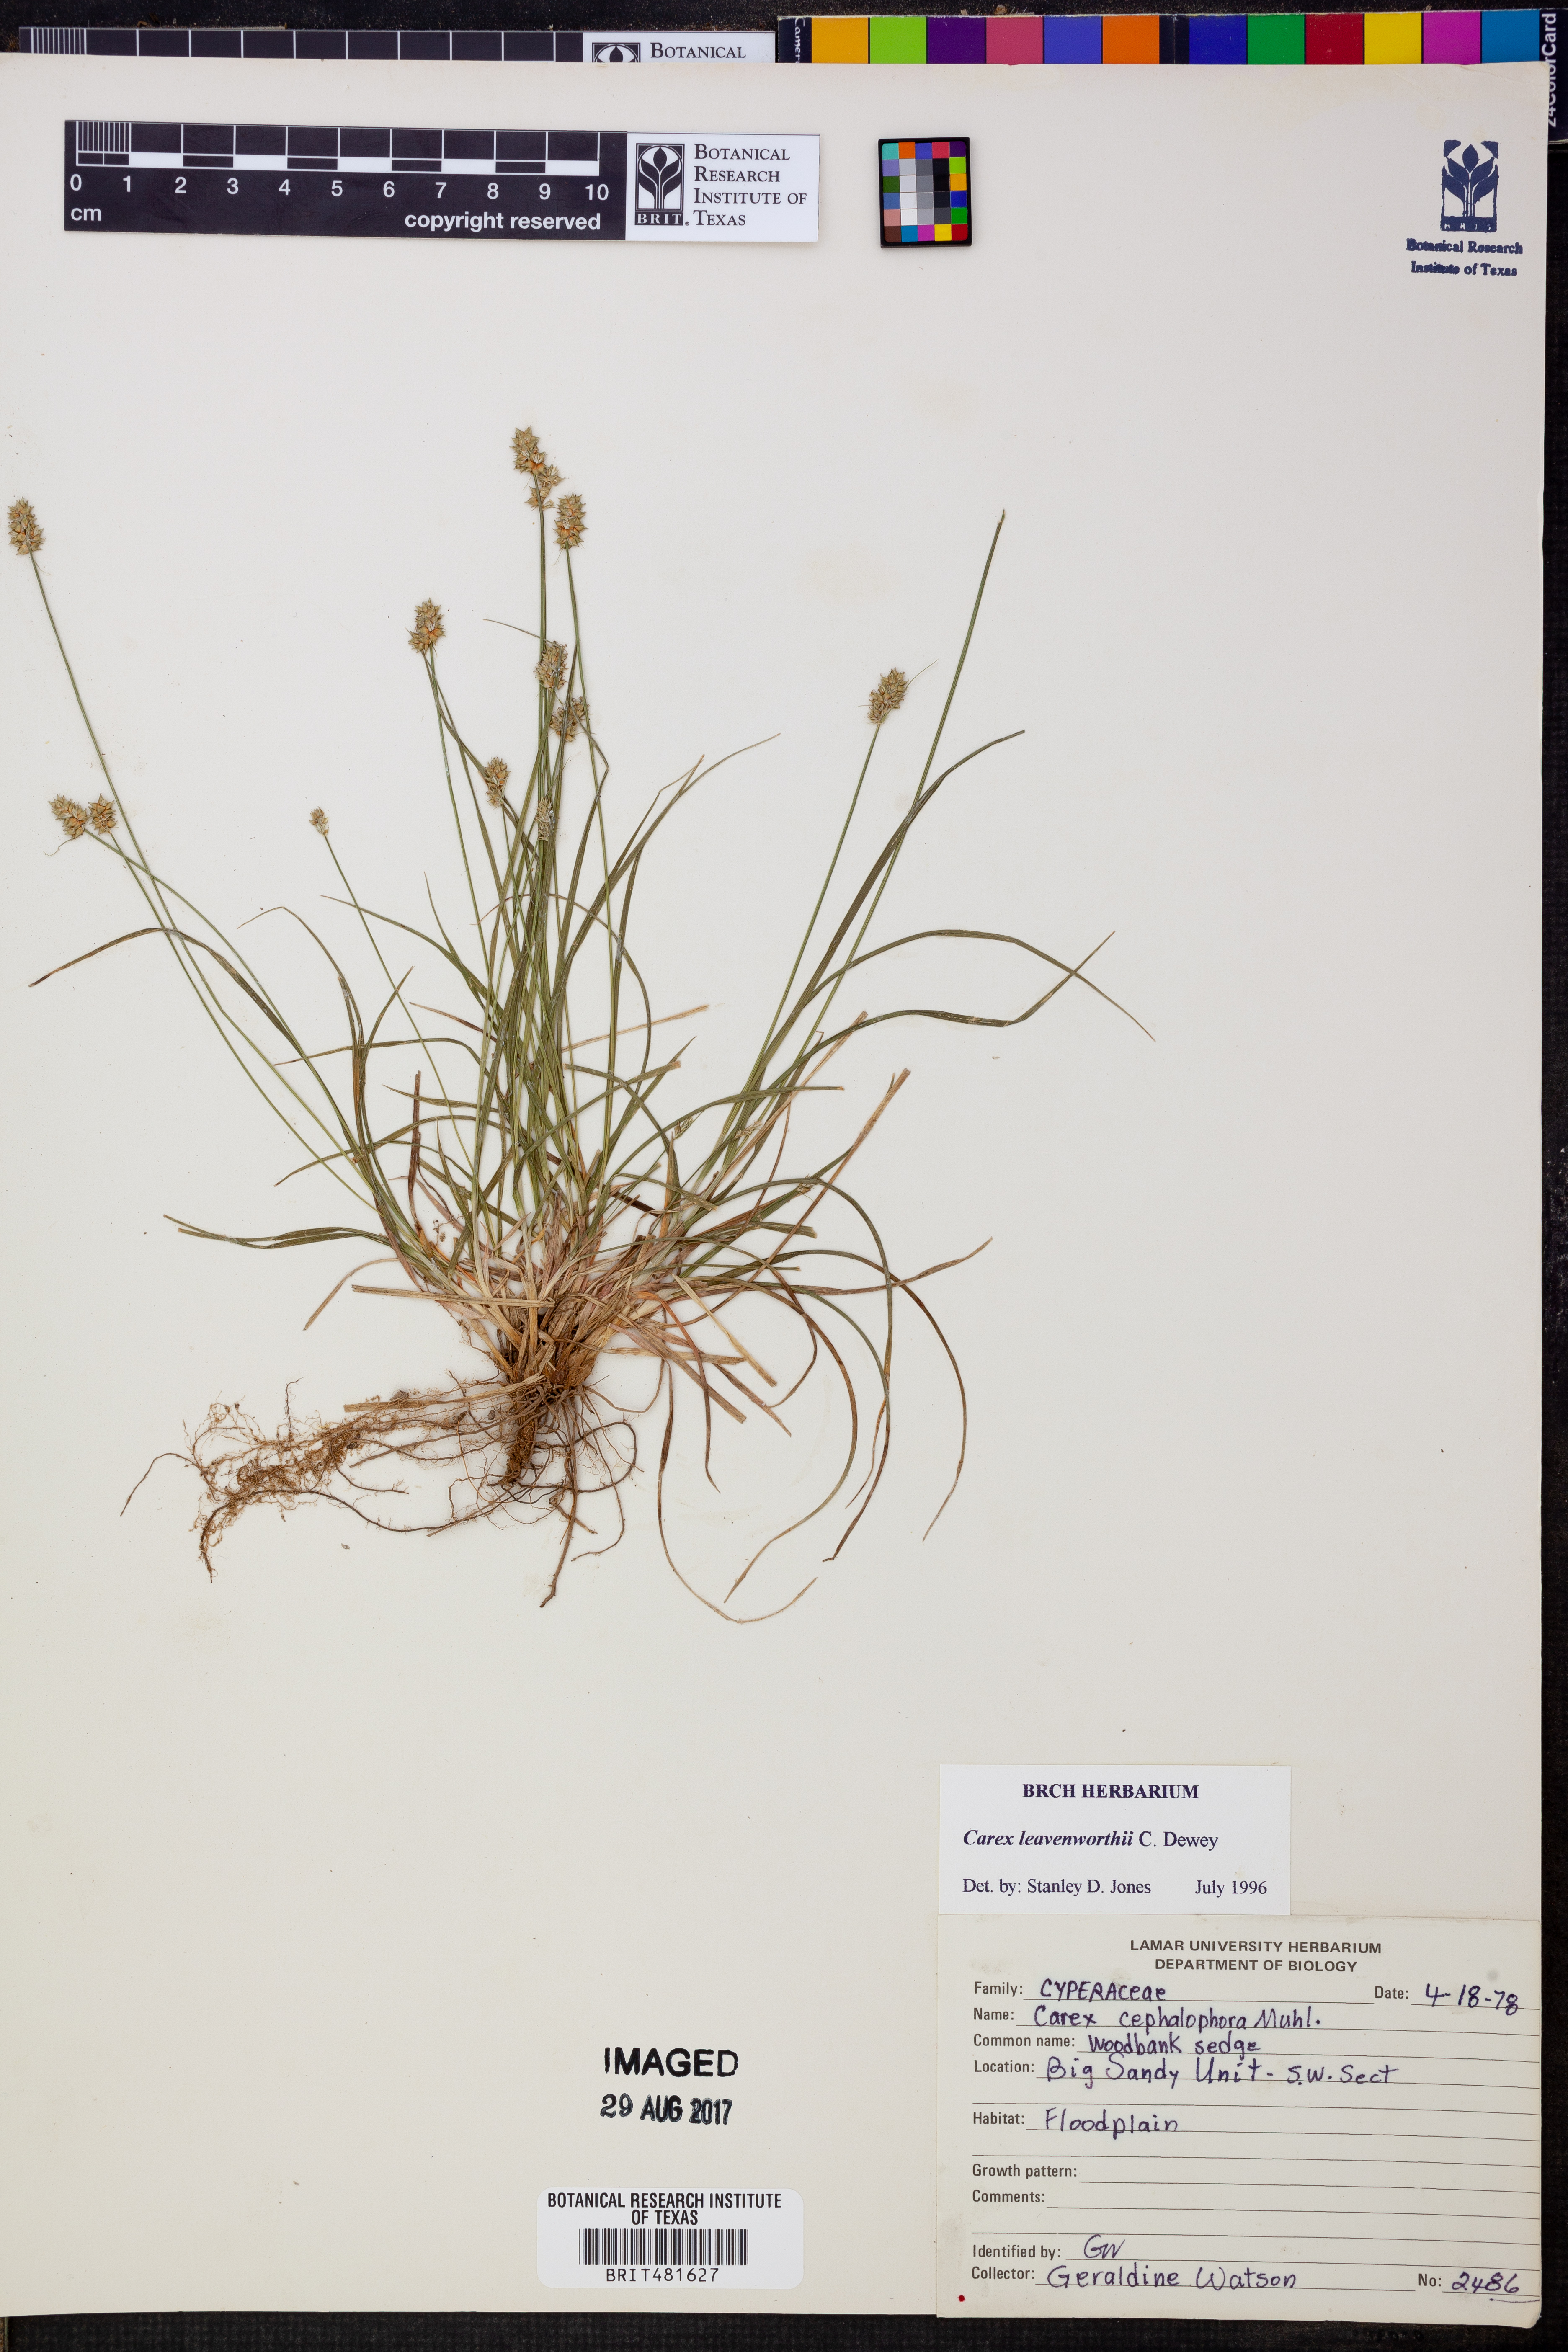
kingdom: Plantae
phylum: Tracheophyta
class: Liliopsida
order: Poales
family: Cyperaceae
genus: Carex
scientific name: Carex leavenworthii
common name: Leavenworth's bracted sedge
